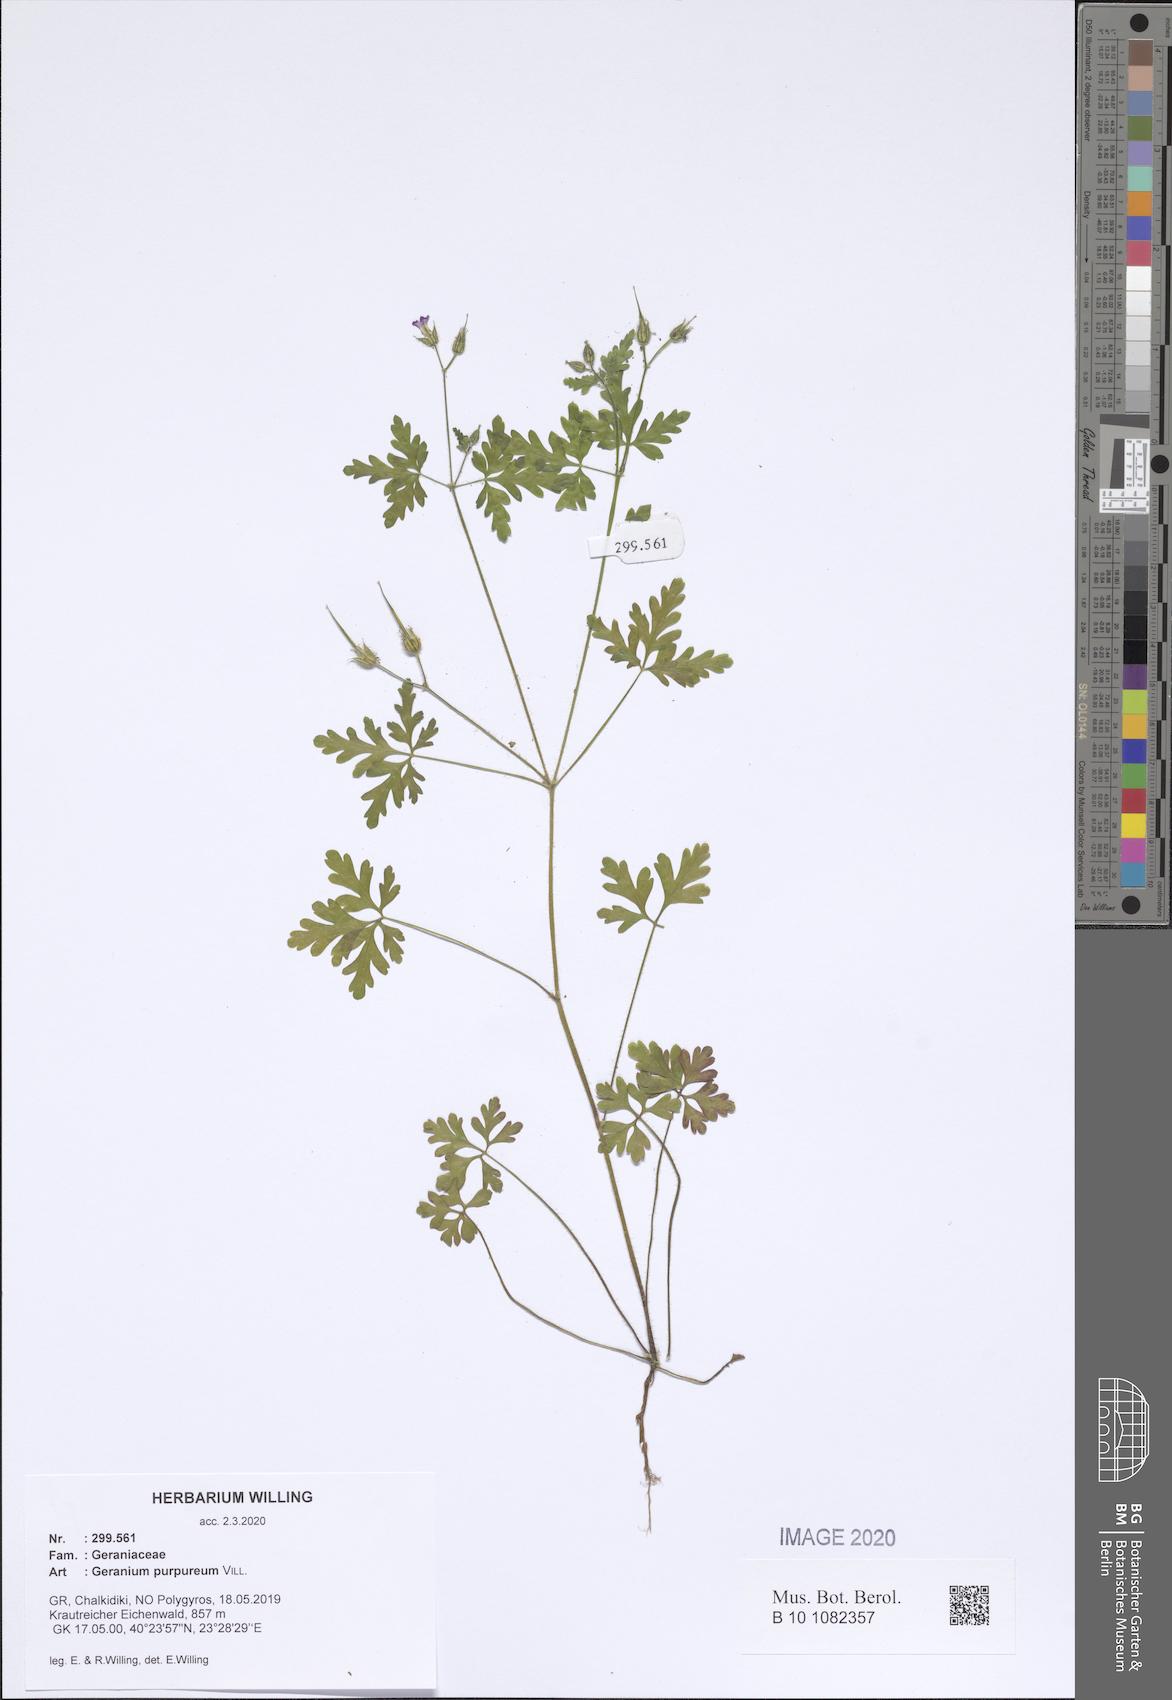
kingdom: Plantae
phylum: Tracheophyta
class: Magnoliopsida
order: Geraniales
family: Geraniaceae
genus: Geranium
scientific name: Geranium purpureum
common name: Little-robin
